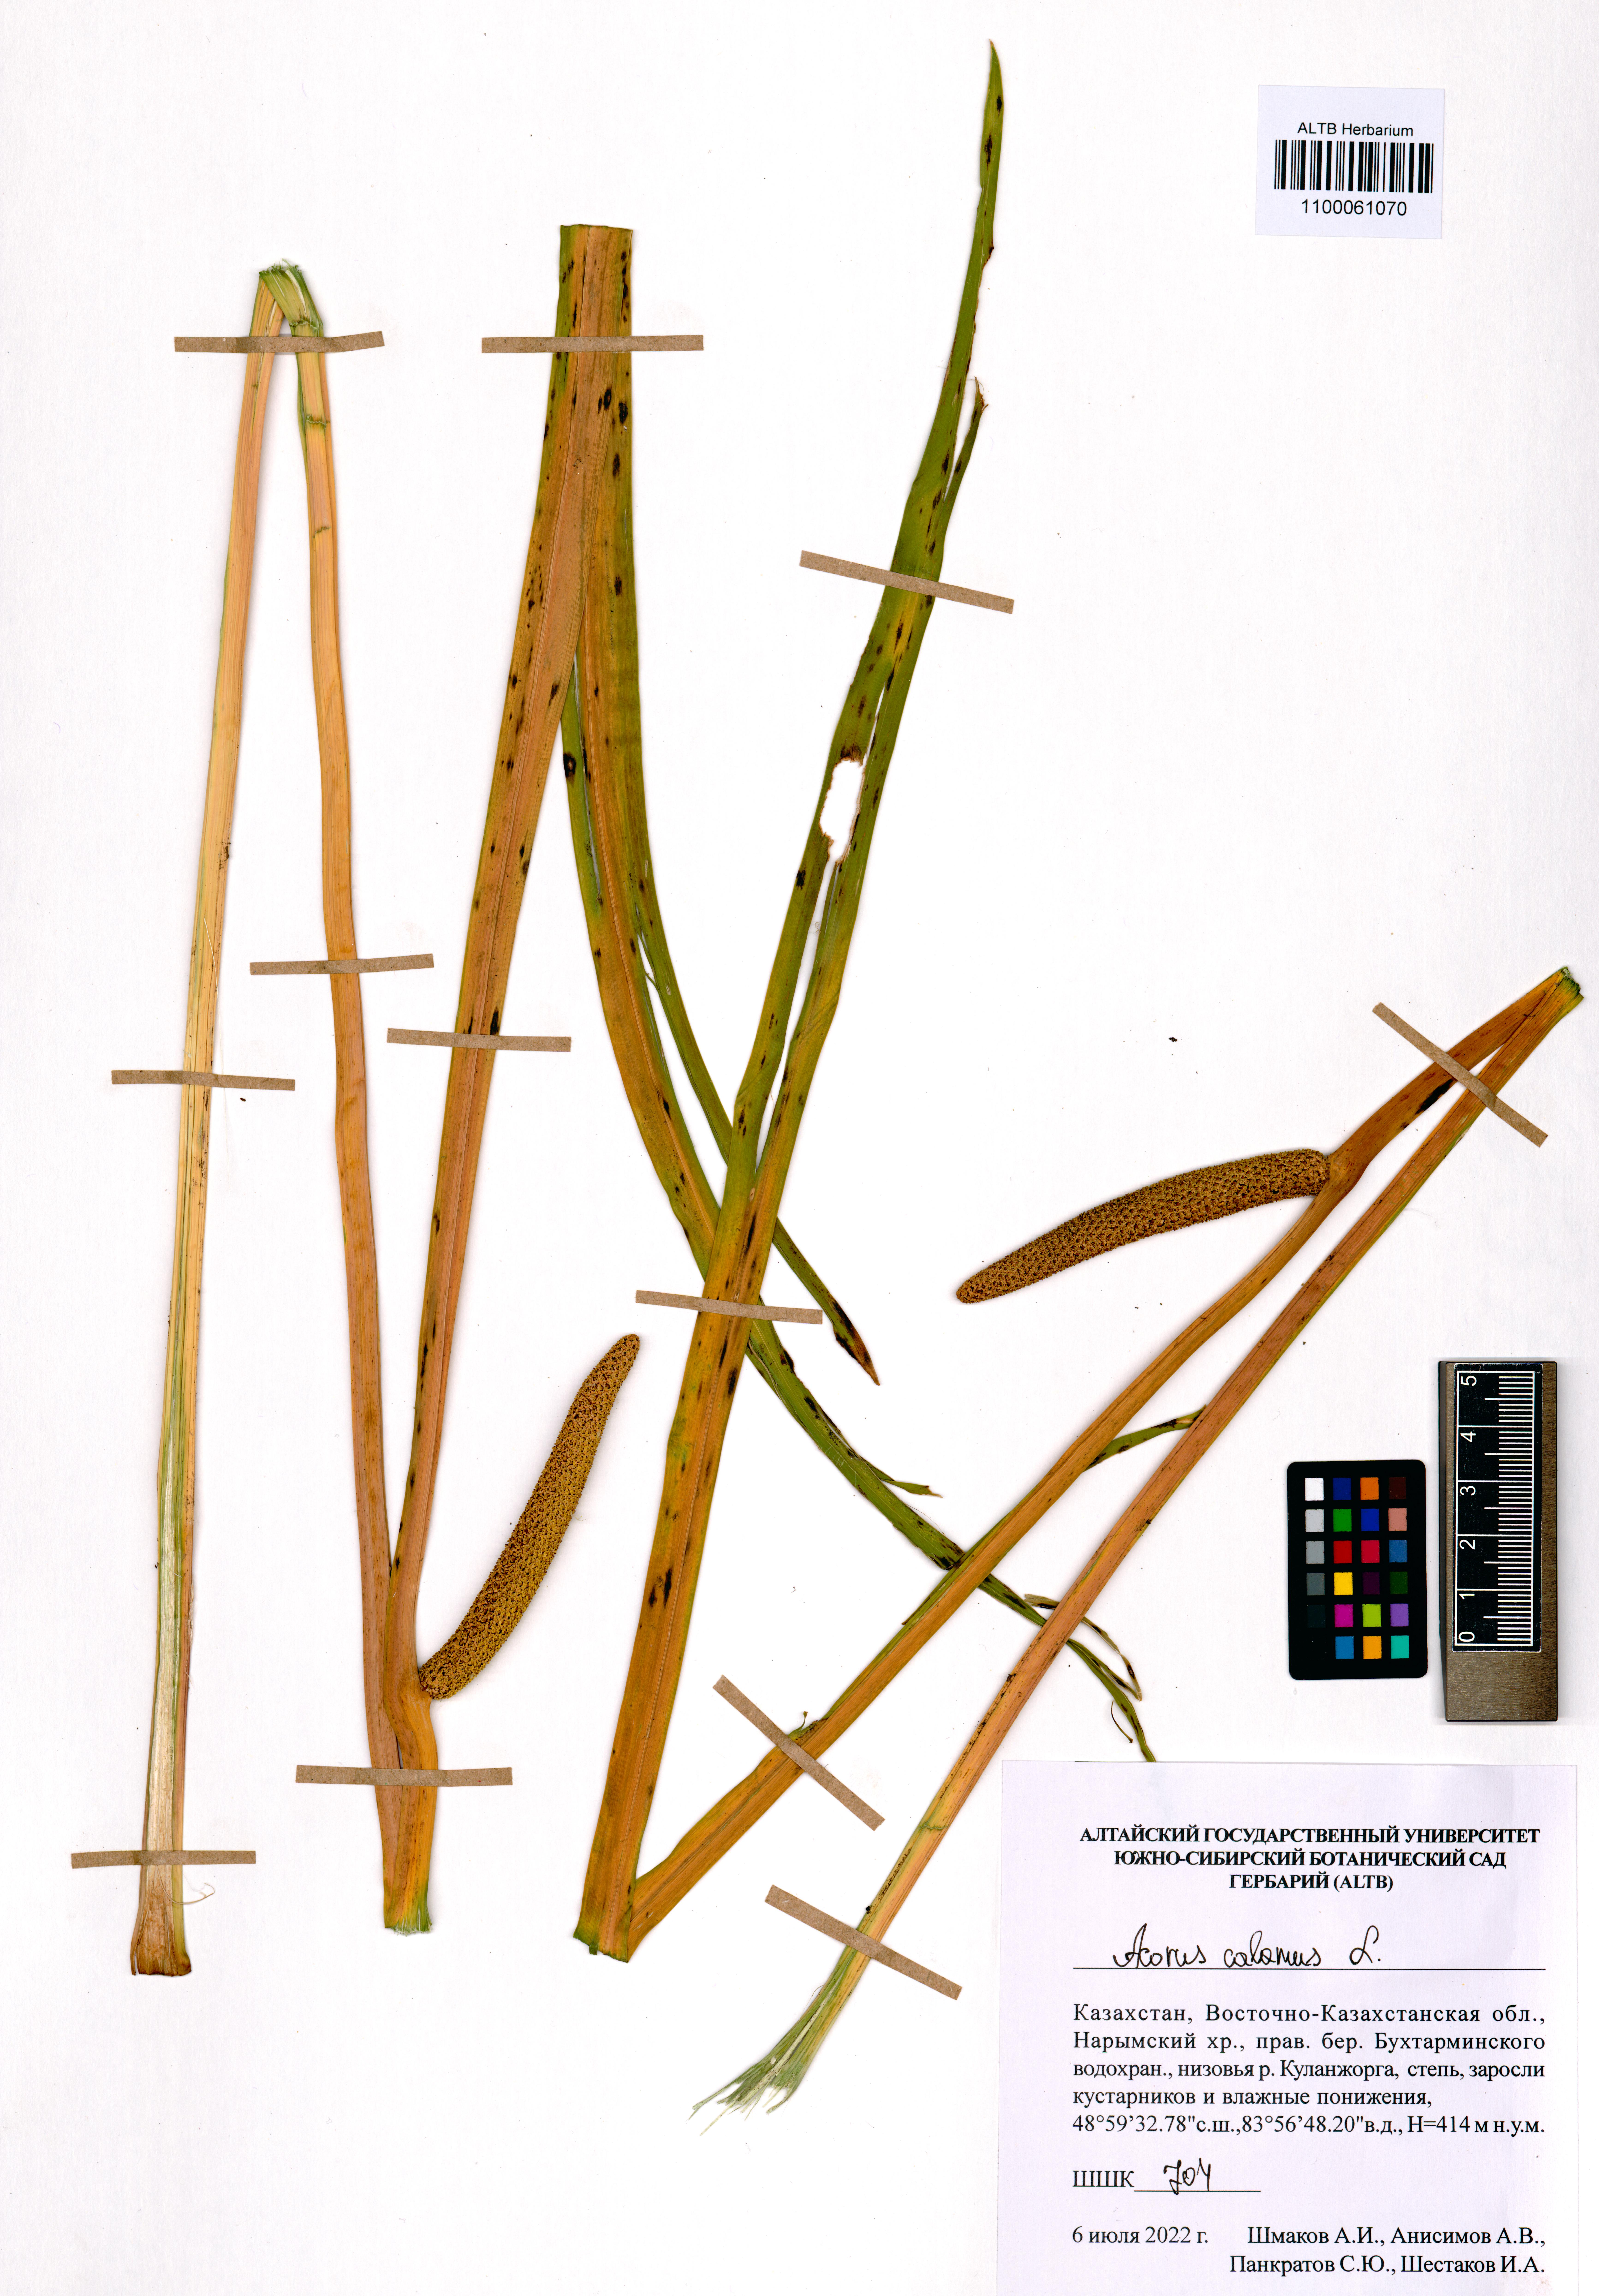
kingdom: Plantae
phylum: Tracheophyta
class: Liliopsida
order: Acorales
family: Acoraceae
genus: Acorus
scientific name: Acorus calamus
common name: Sweet-flag
